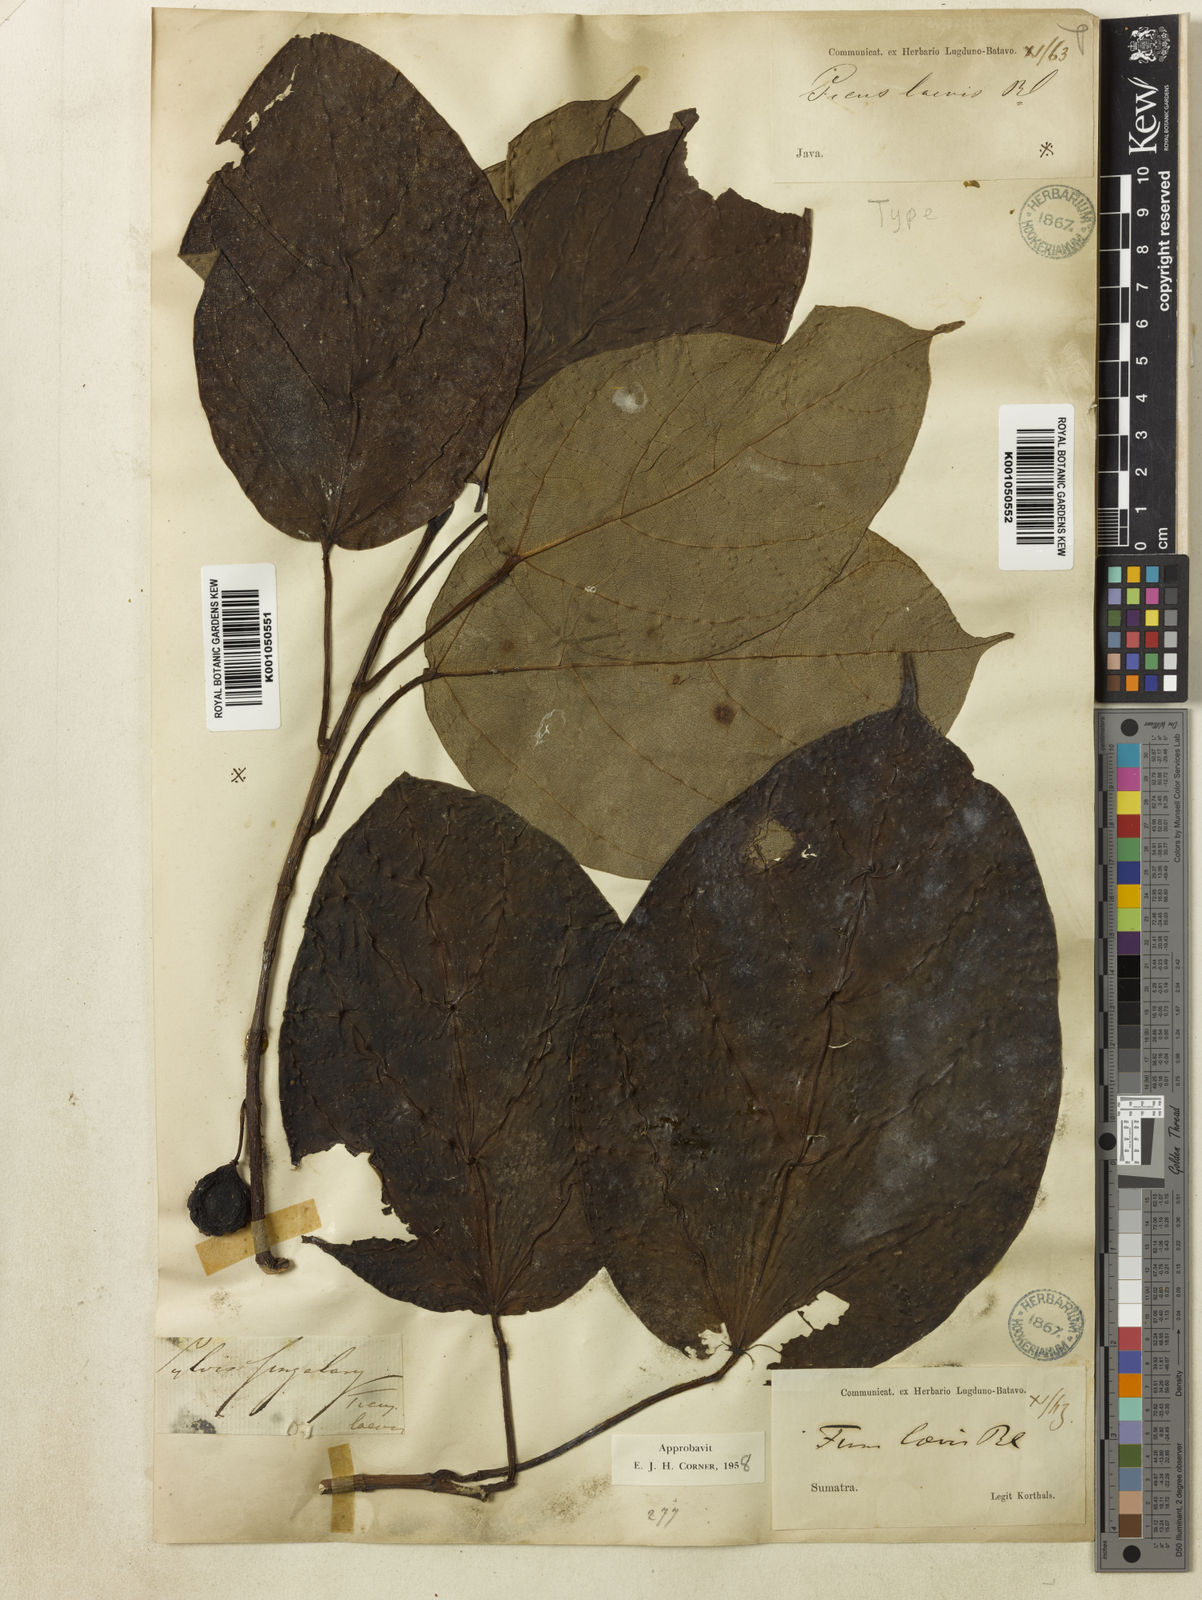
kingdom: Plantae
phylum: Tracheophyta
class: Magnoliopsida
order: Rosales
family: Moraceae
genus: Ficus
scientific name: Ficus laevis
